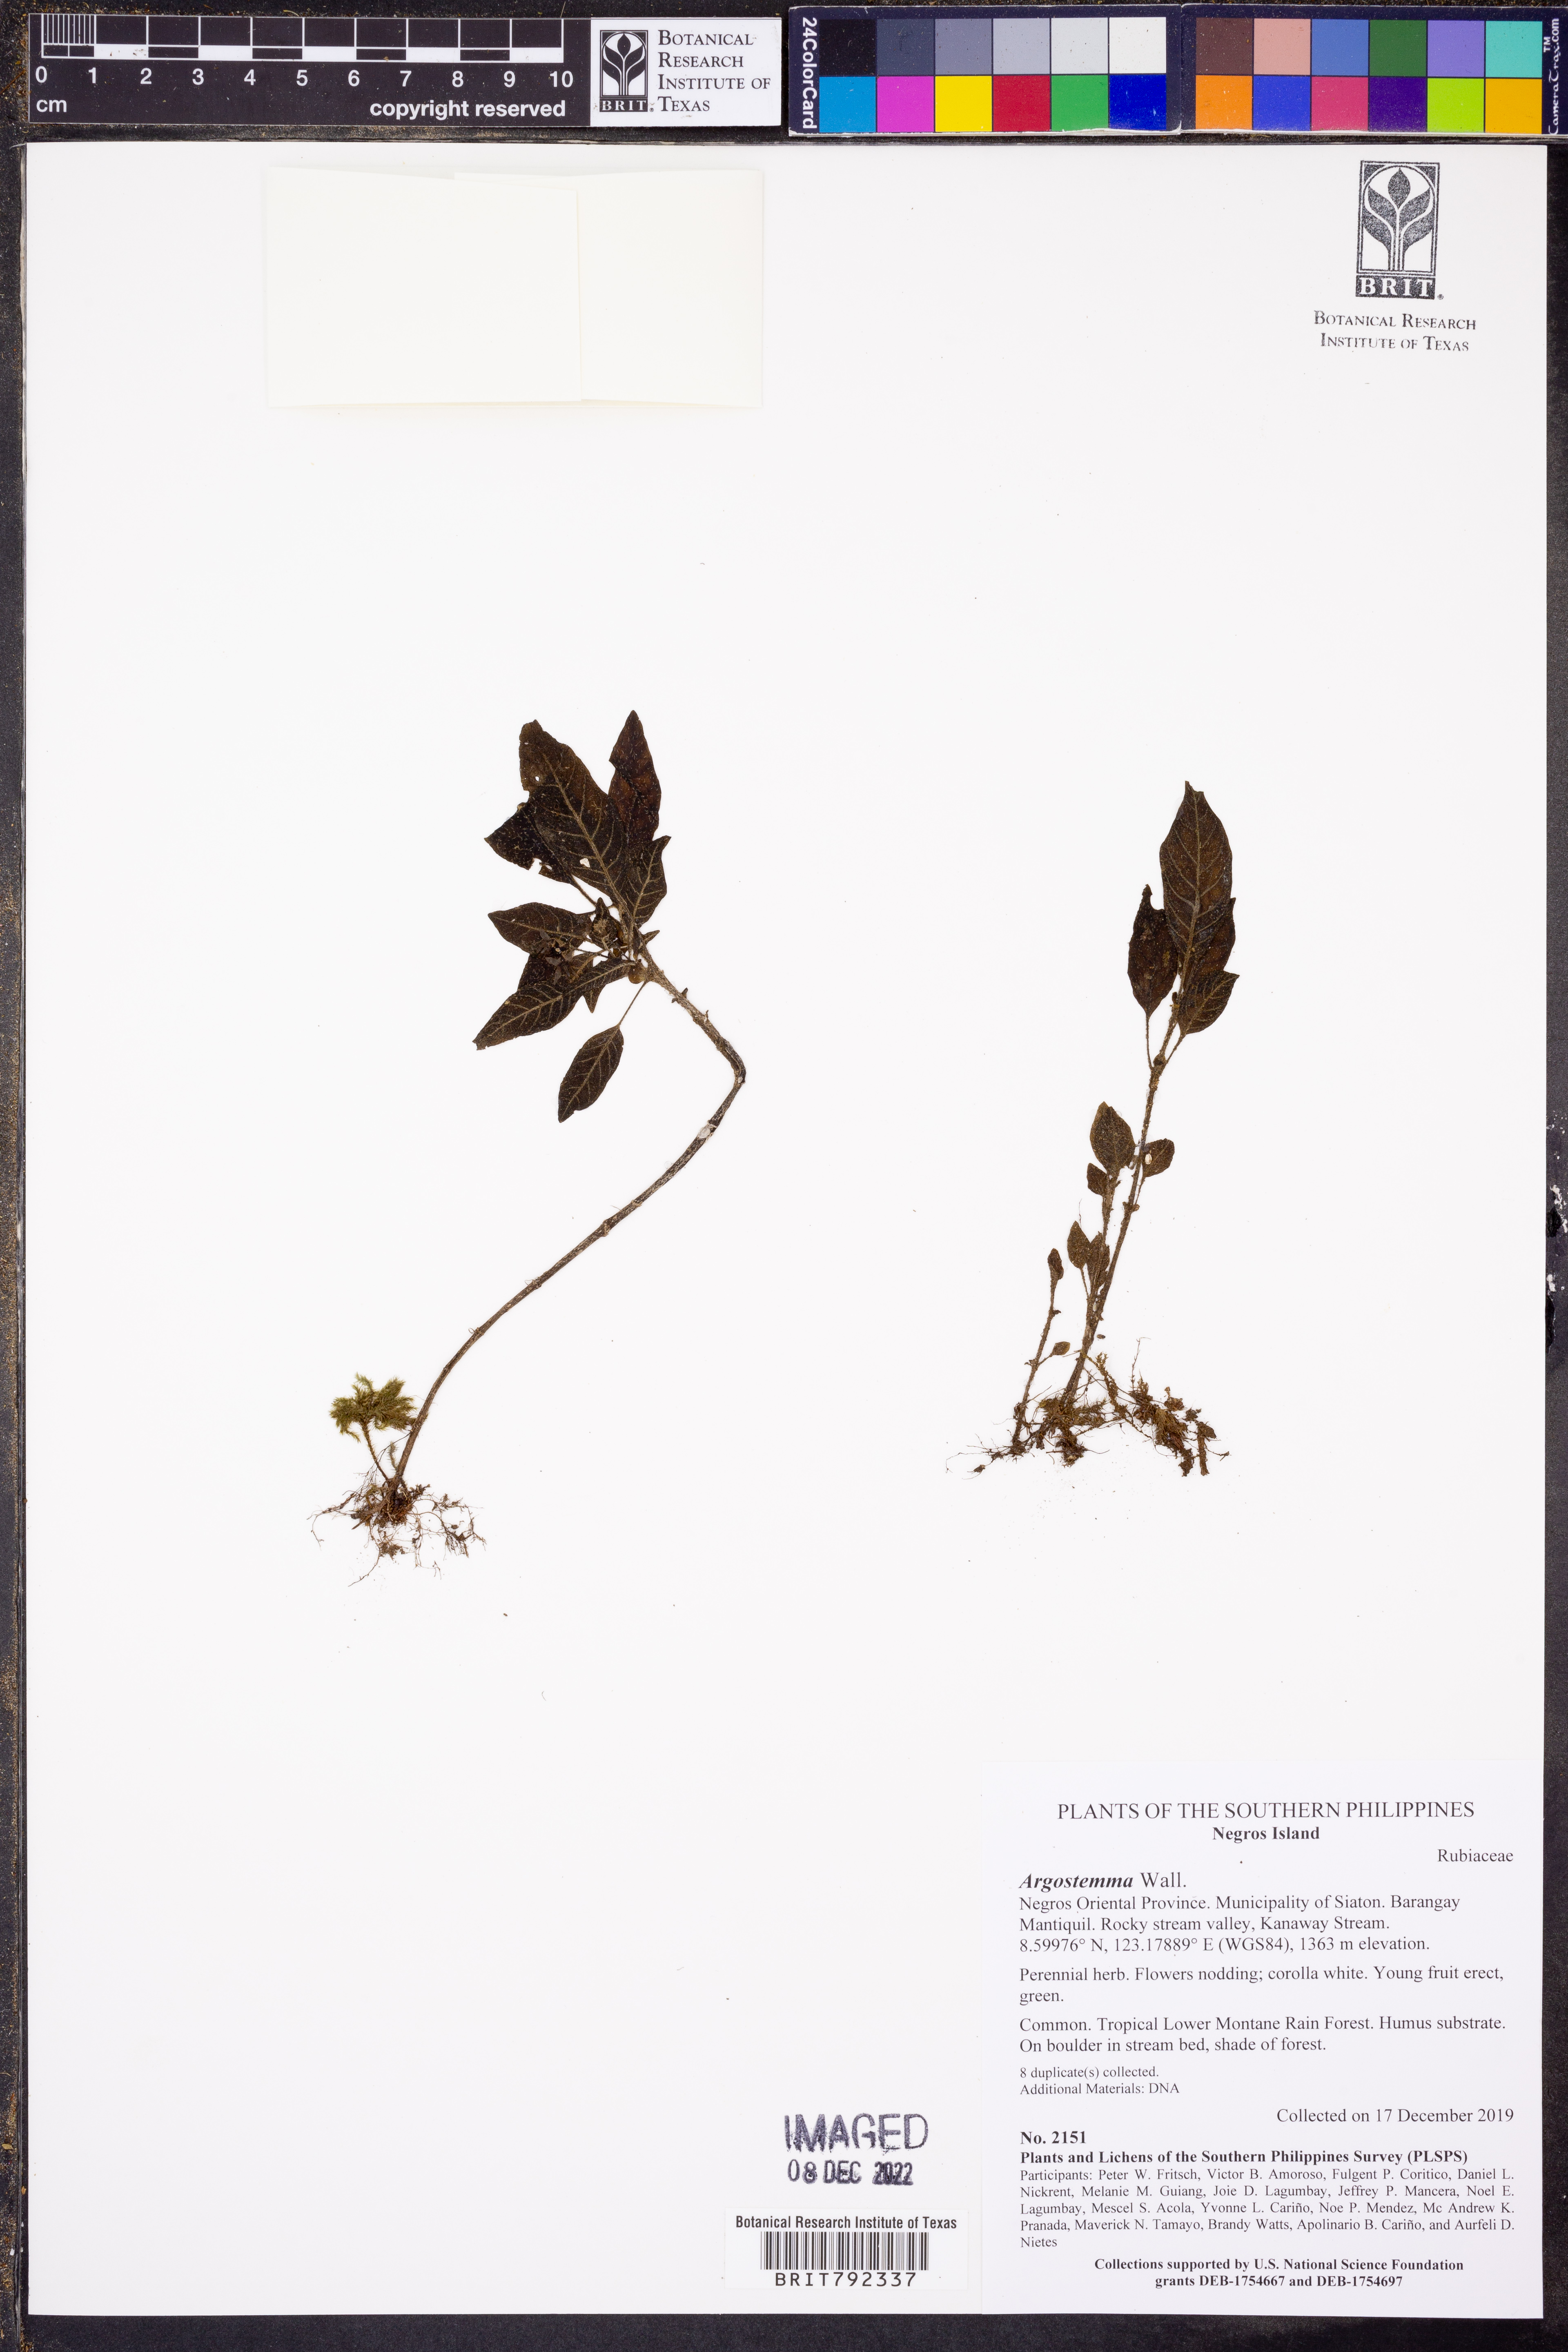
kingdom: Plantae
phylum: Tracheophyta
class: Magnoliopsida
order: Gentianales
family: Rubiaceae
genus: Argostemma
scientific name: Argostemma
